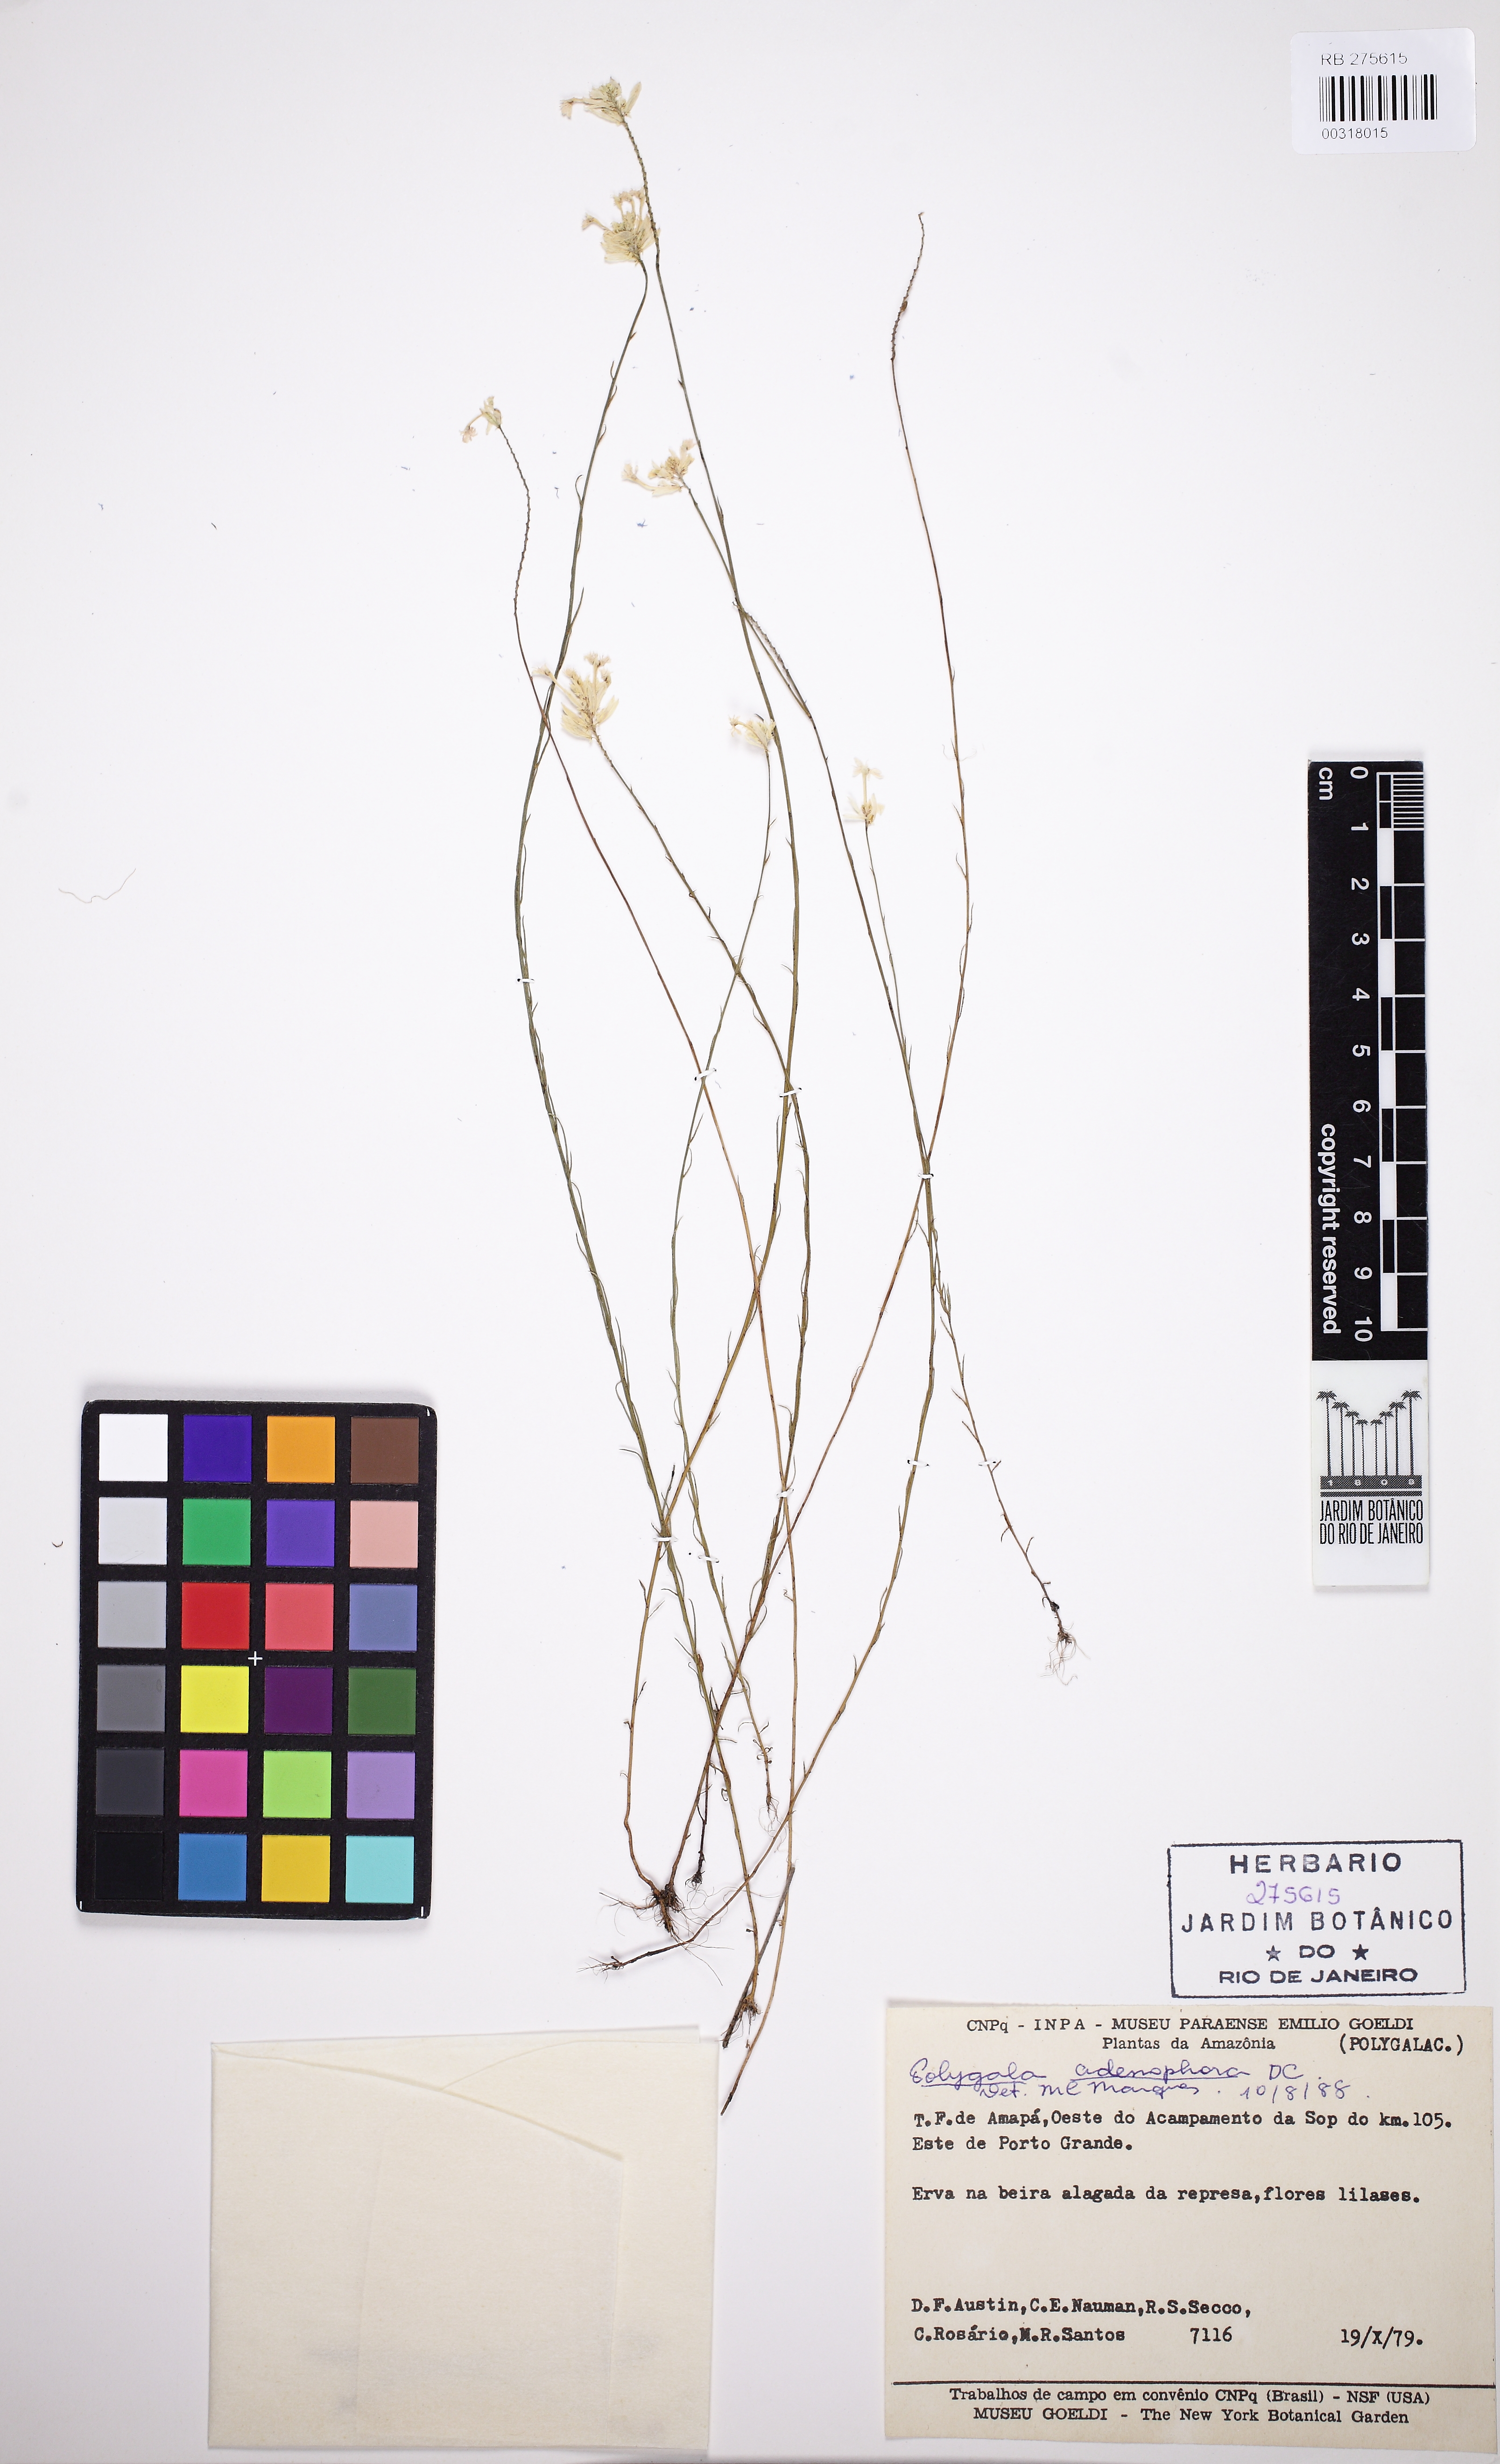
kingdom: Plantae
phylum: Tracheophyta
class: Magnoliopsida
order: Fabales
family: Polygalaceae
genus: Polygala
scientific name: Polygala adenophora
